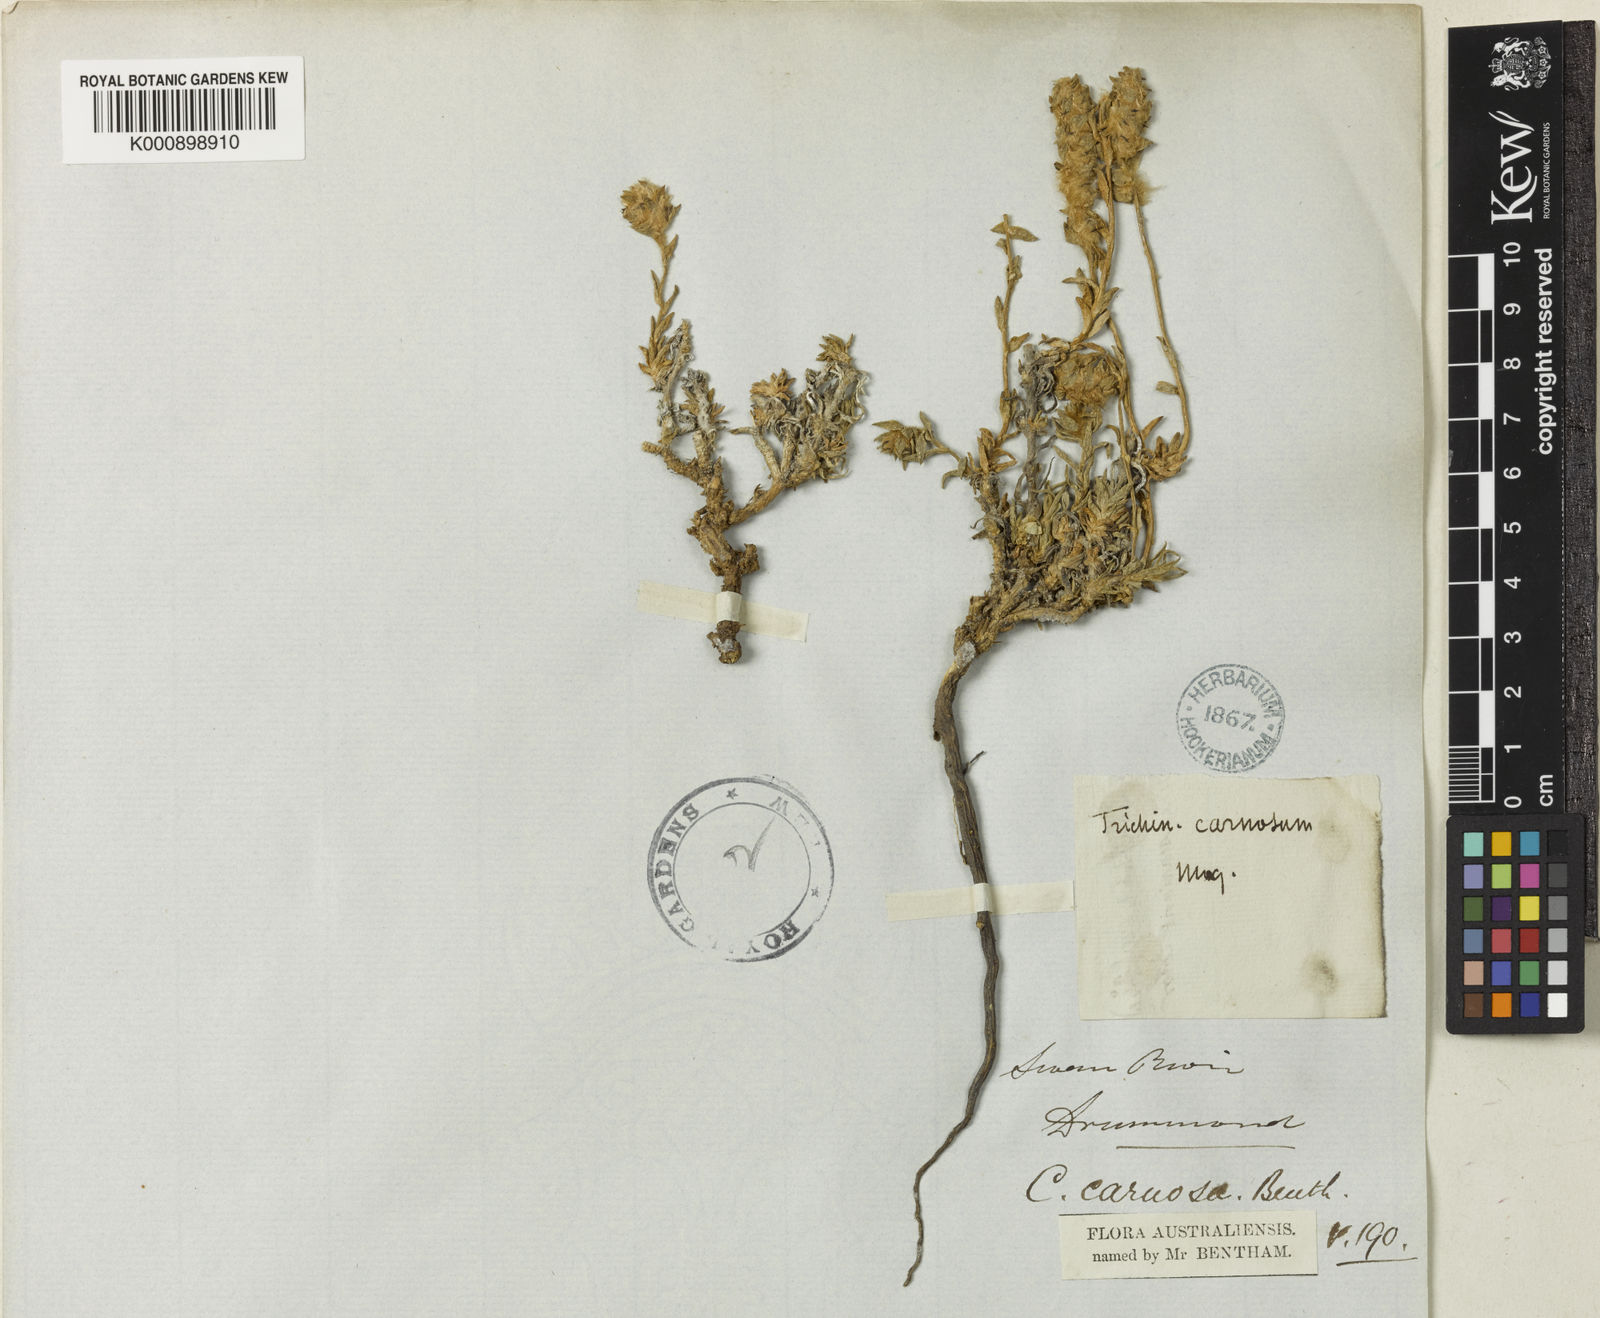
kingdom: Plantae
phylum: Tracheophyta
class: Magnoliopsida
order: Caryophyllales
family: Amaranthaceae
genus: Maireana
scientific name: Maireana carnosa
